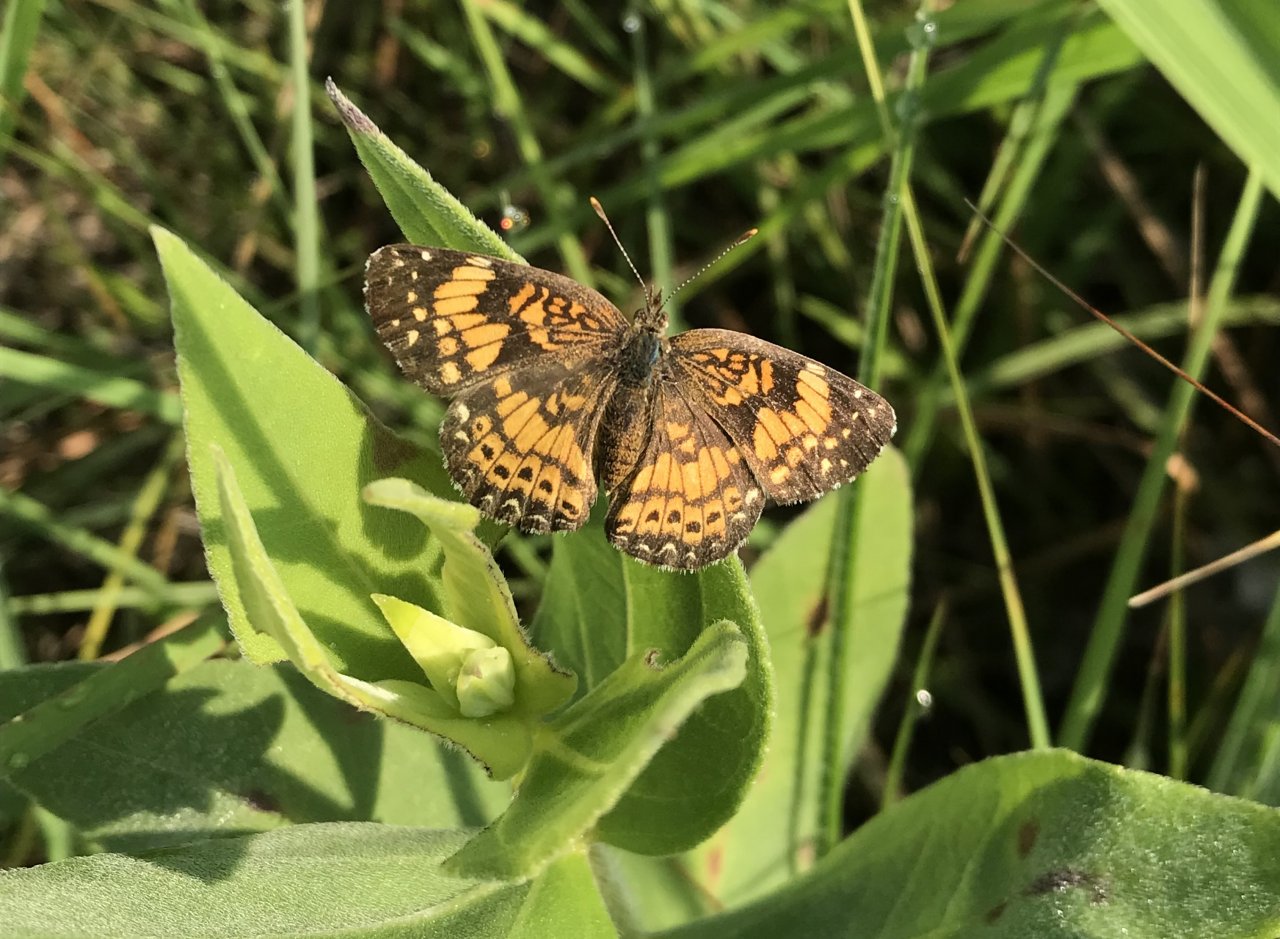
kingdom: Animalia
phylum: Arthropoda
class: Insecta
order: Lepidoptera
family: Nymphalidae
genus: Chlosyne
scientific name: Chlosyne gorgone
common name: Gorgone Checkerspot
